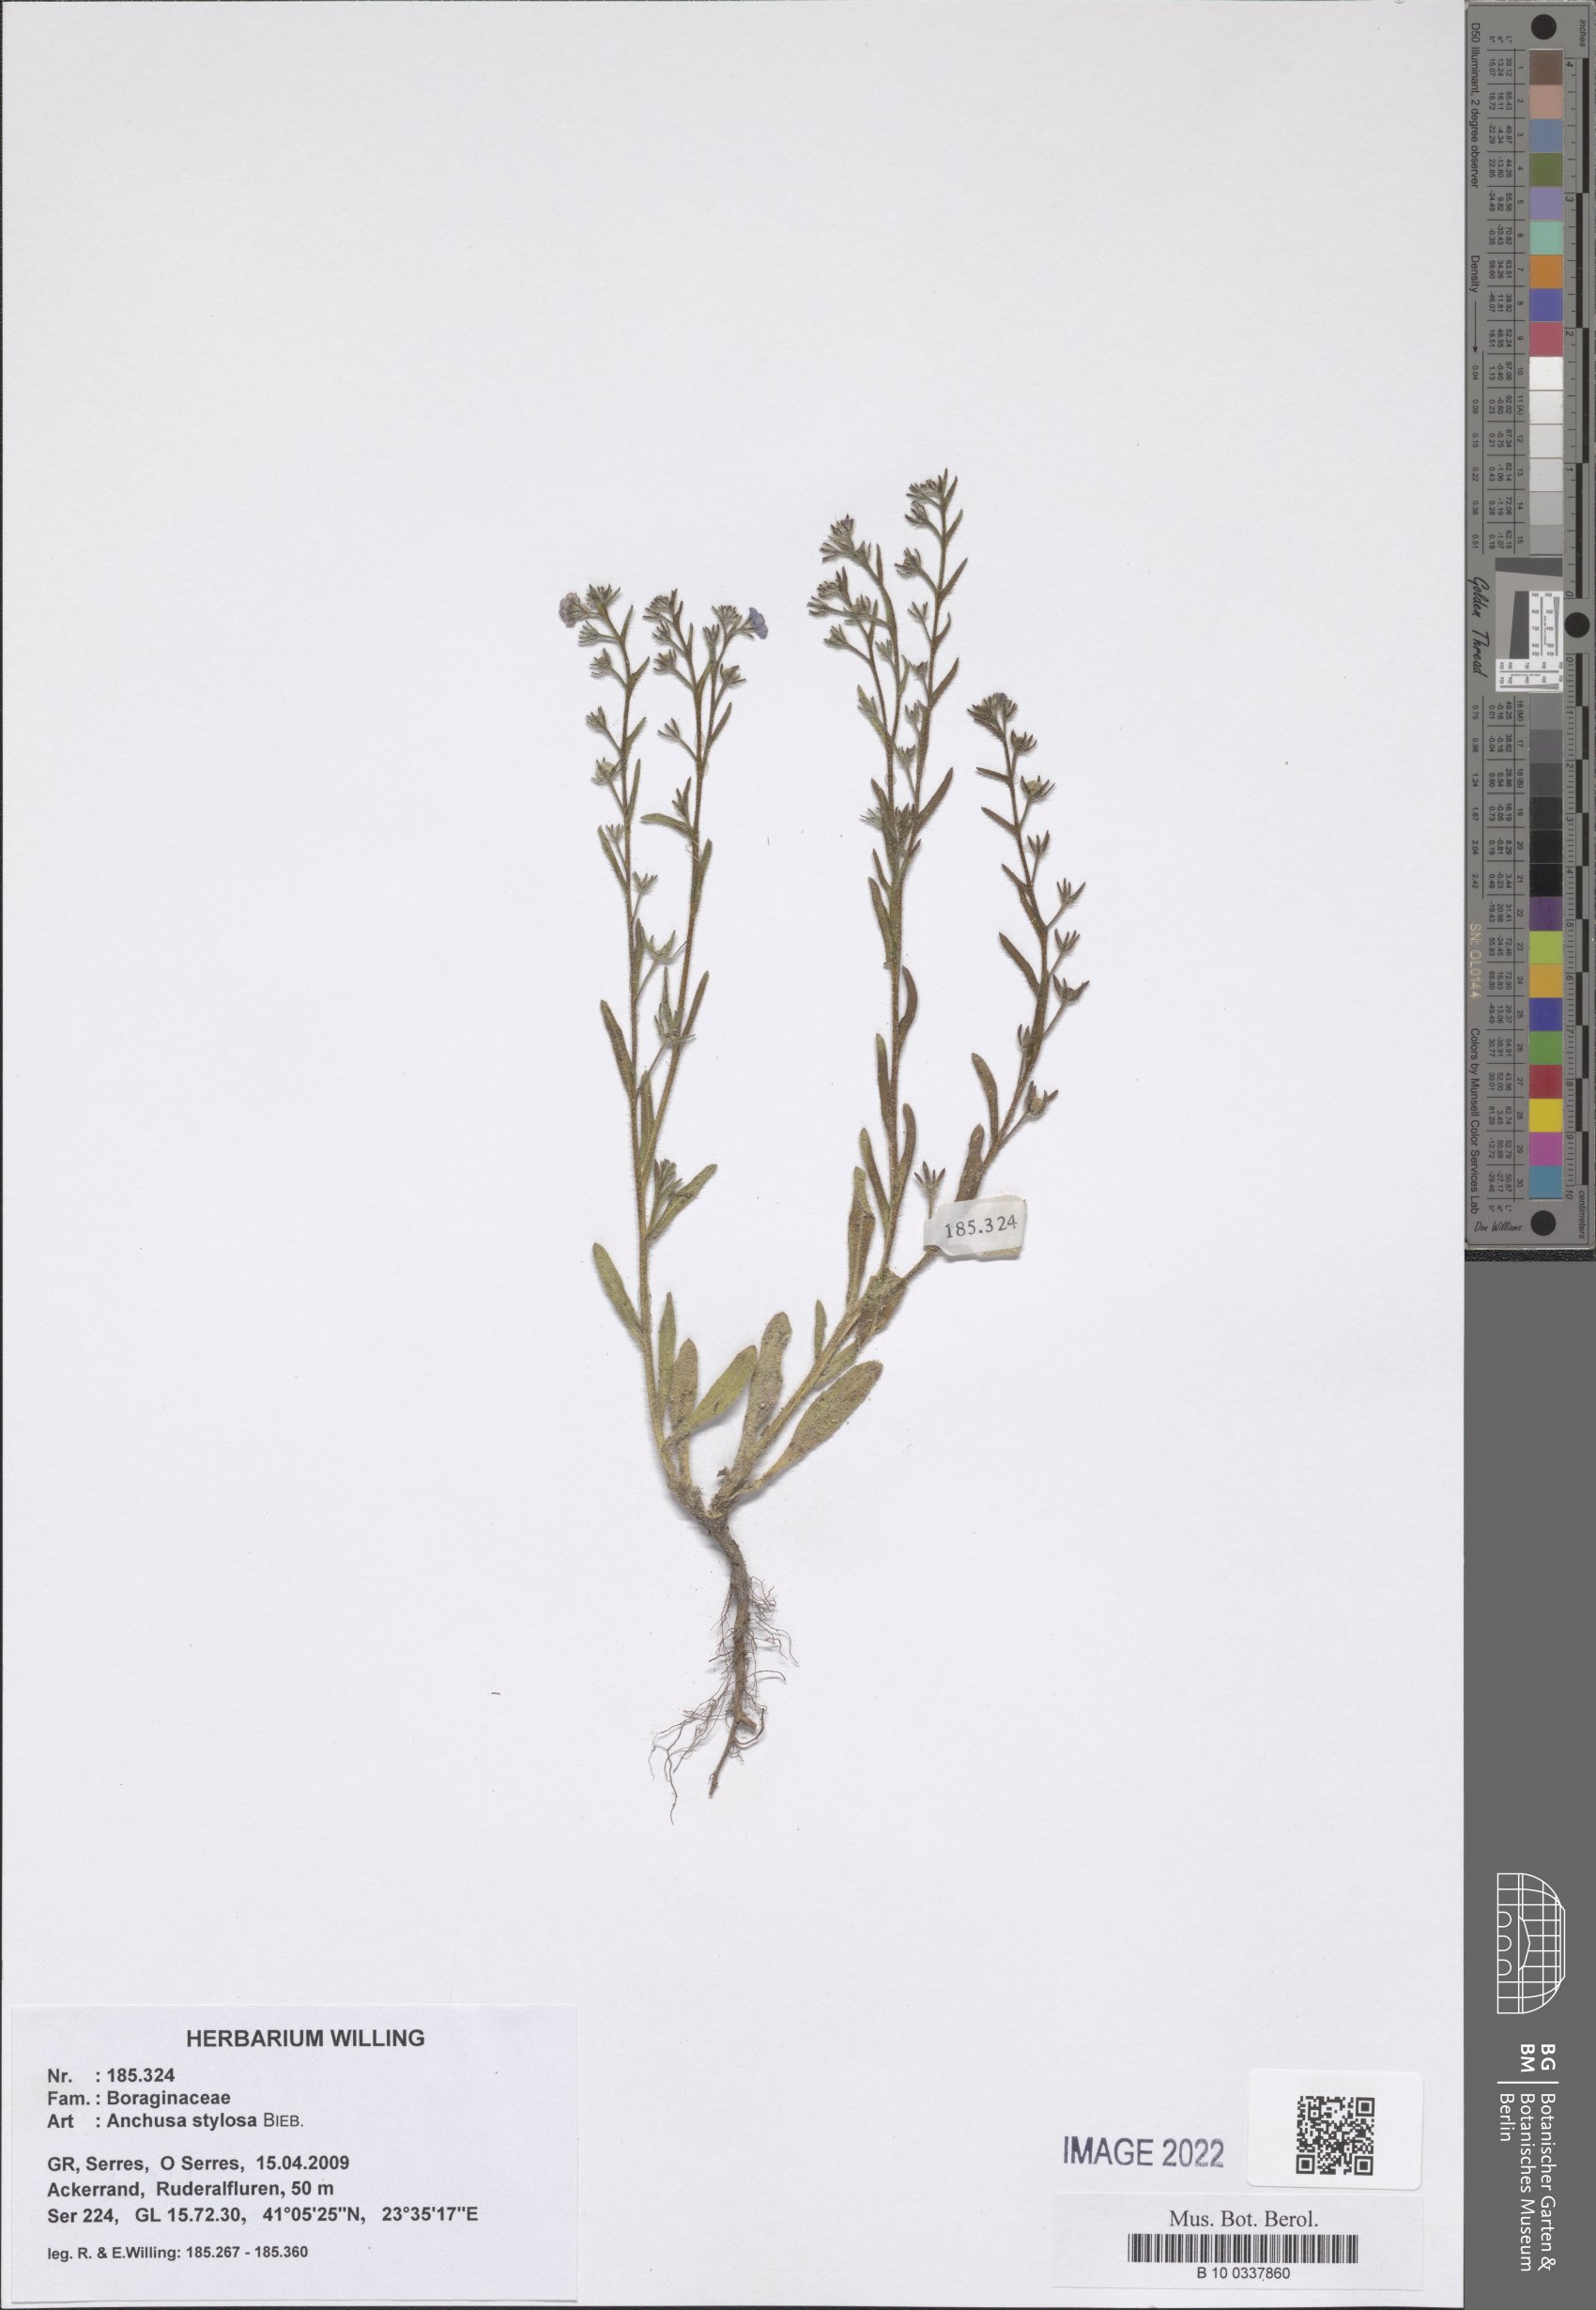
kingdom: Plantae
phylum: Tracheophyta
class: Magnoliopsida
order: Boraginales
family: Boraginaceae
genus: Anchusa
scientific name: Anchusa stylosa
